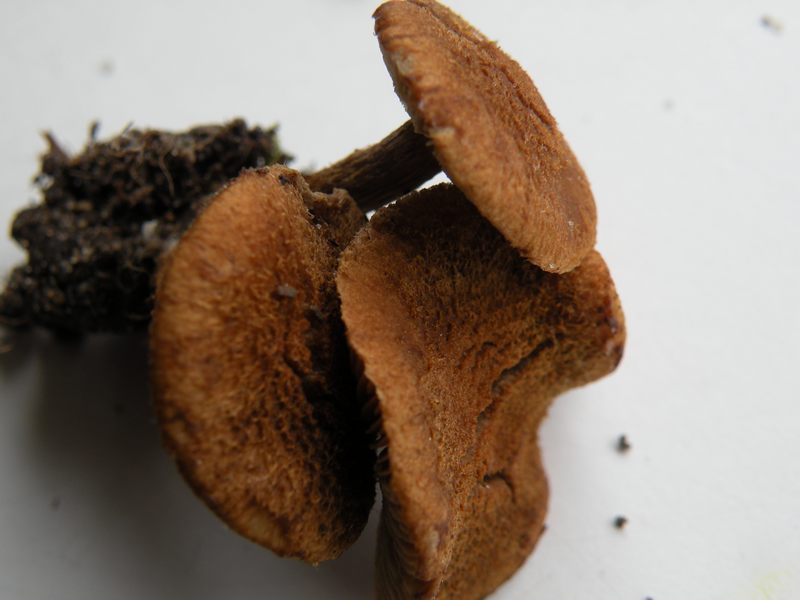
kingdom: Fungi
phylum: Basidiomycota
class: Agaricomycetes
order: Agaricales
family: Inocybaceae
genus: Inocybe
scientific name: Inocybe dulcamara
